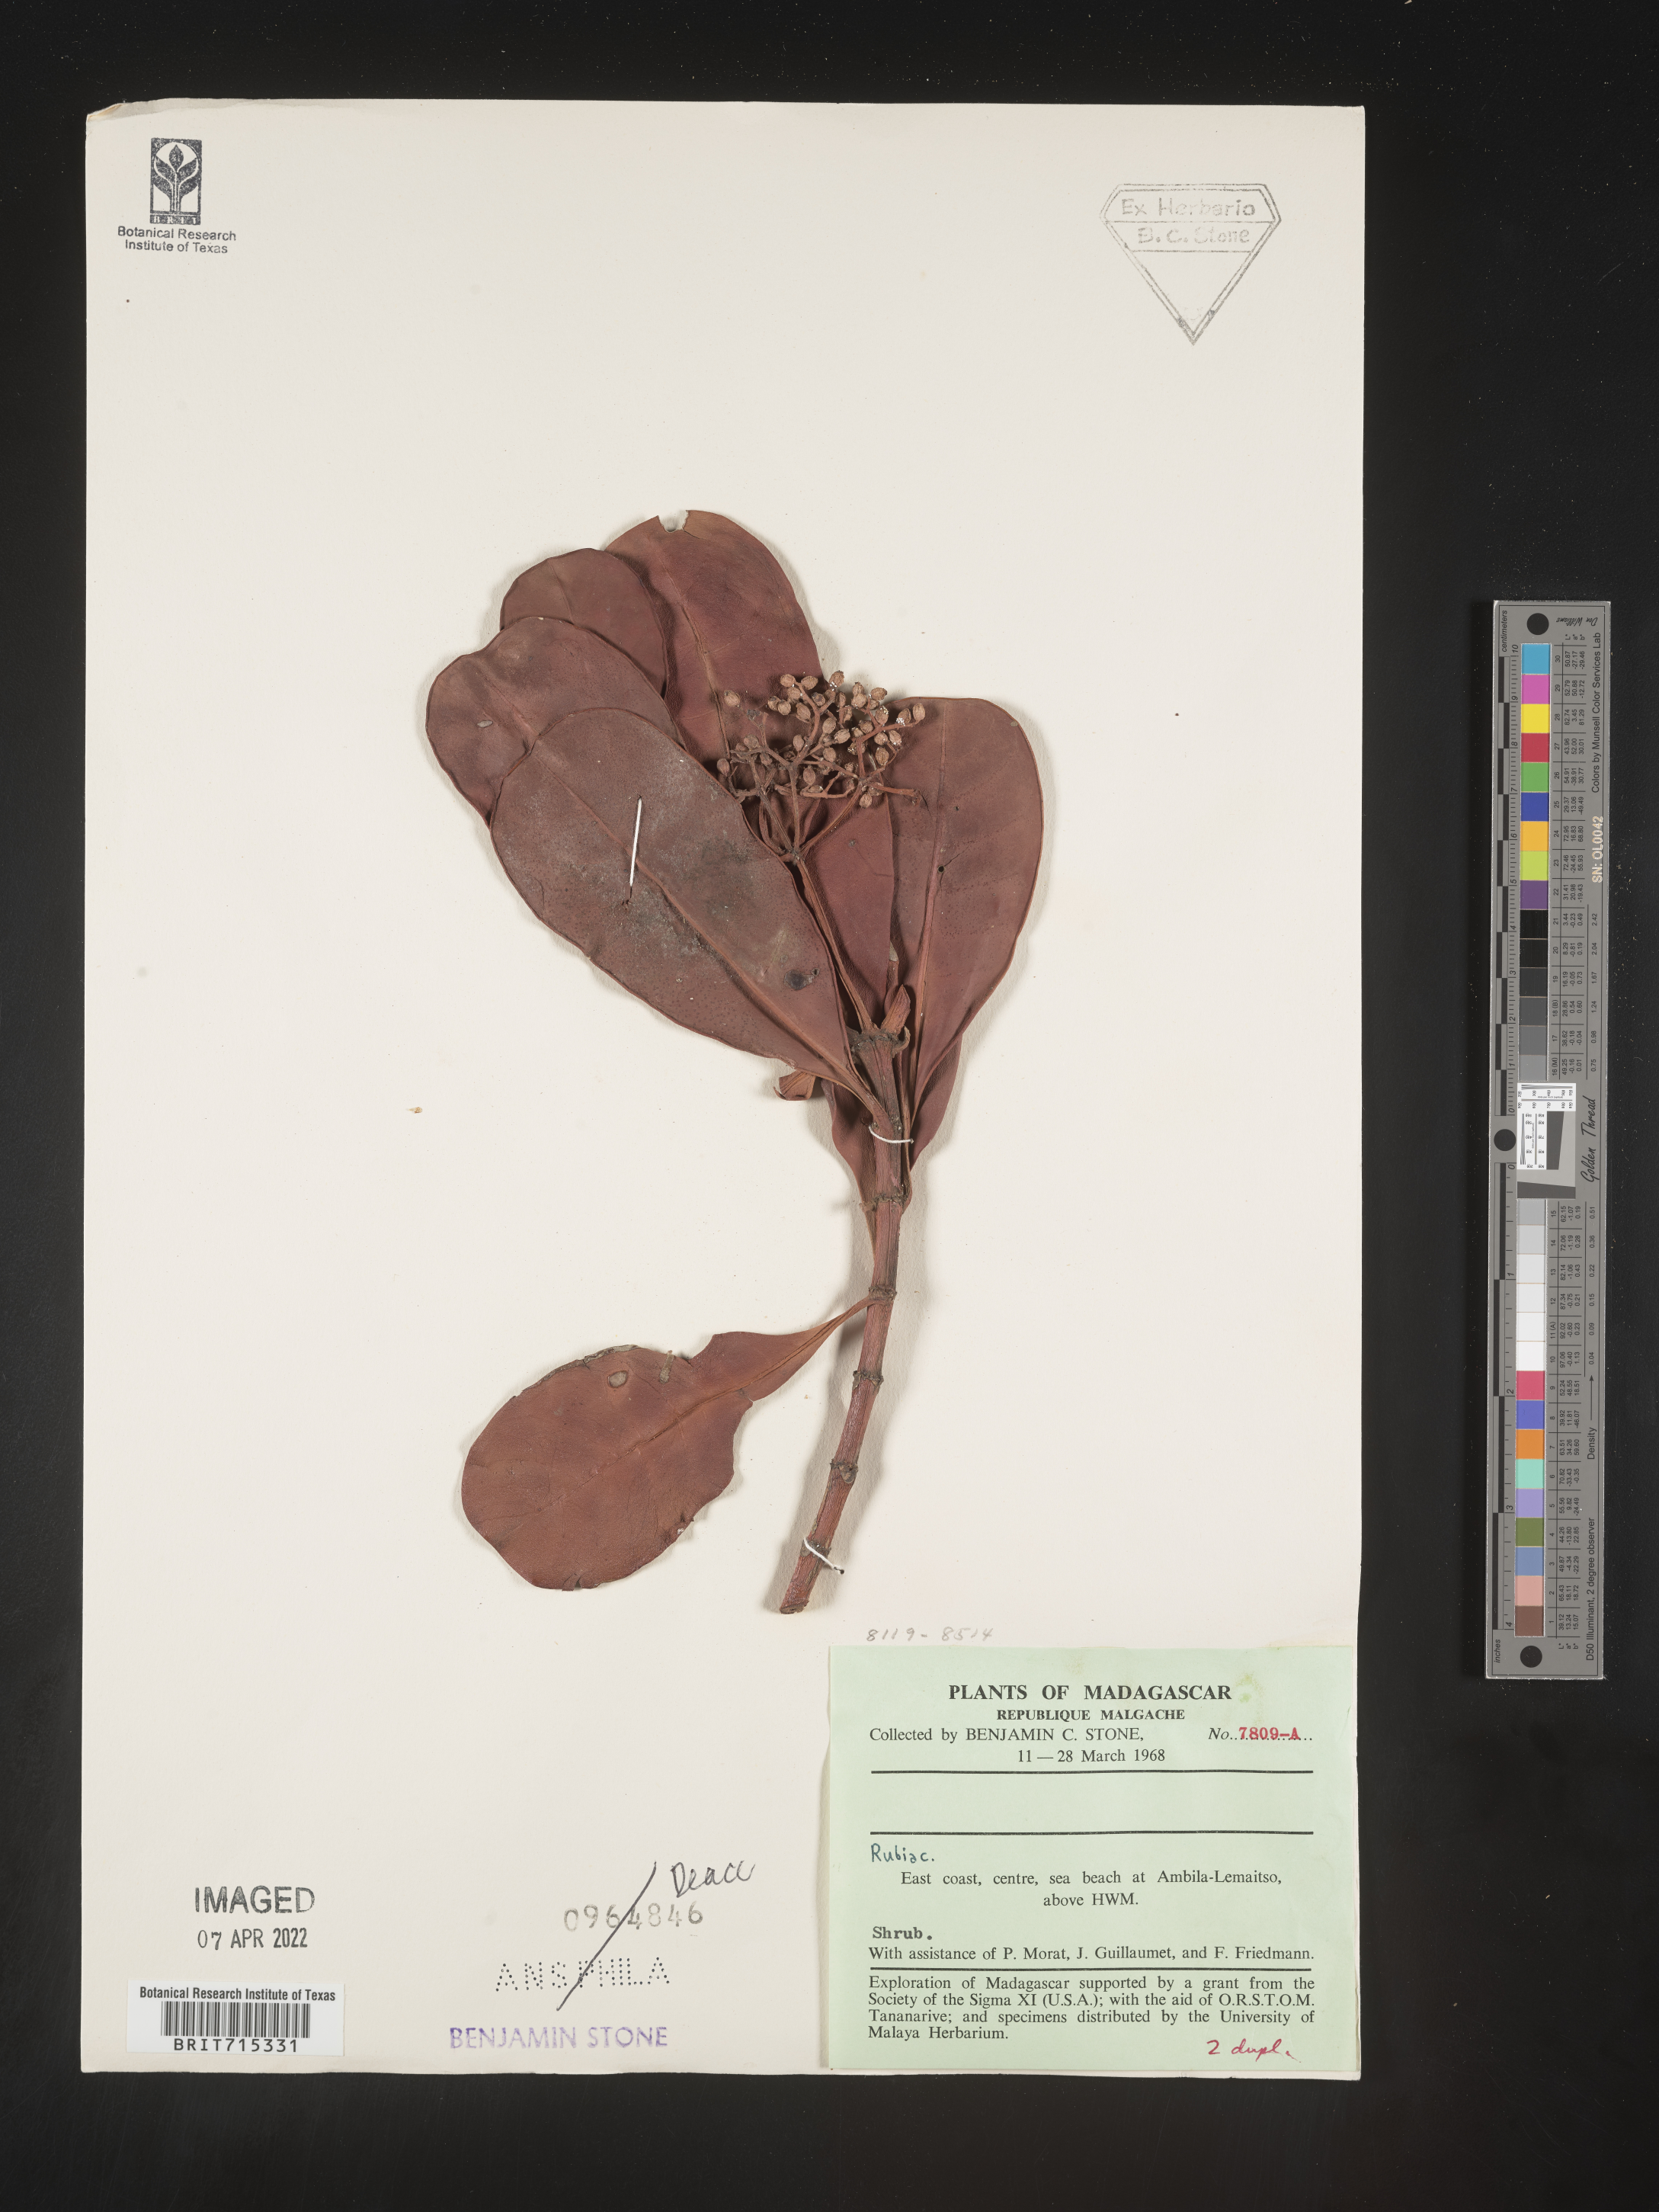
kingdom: Plantae
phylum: Tracheophyta
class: Magnoliopsida
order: Gentianales
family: Rubiaceae
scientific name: Rubiaceae
